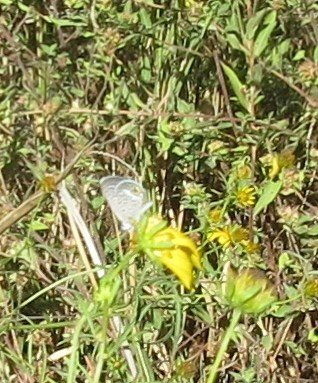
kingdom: Animalia
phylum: Arthropoda
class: Insecta
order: Lepidoptera
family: Lycaenidae
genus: Hemiargus
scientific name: Hemiargus ceraunus
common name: Ceraunus Blue
